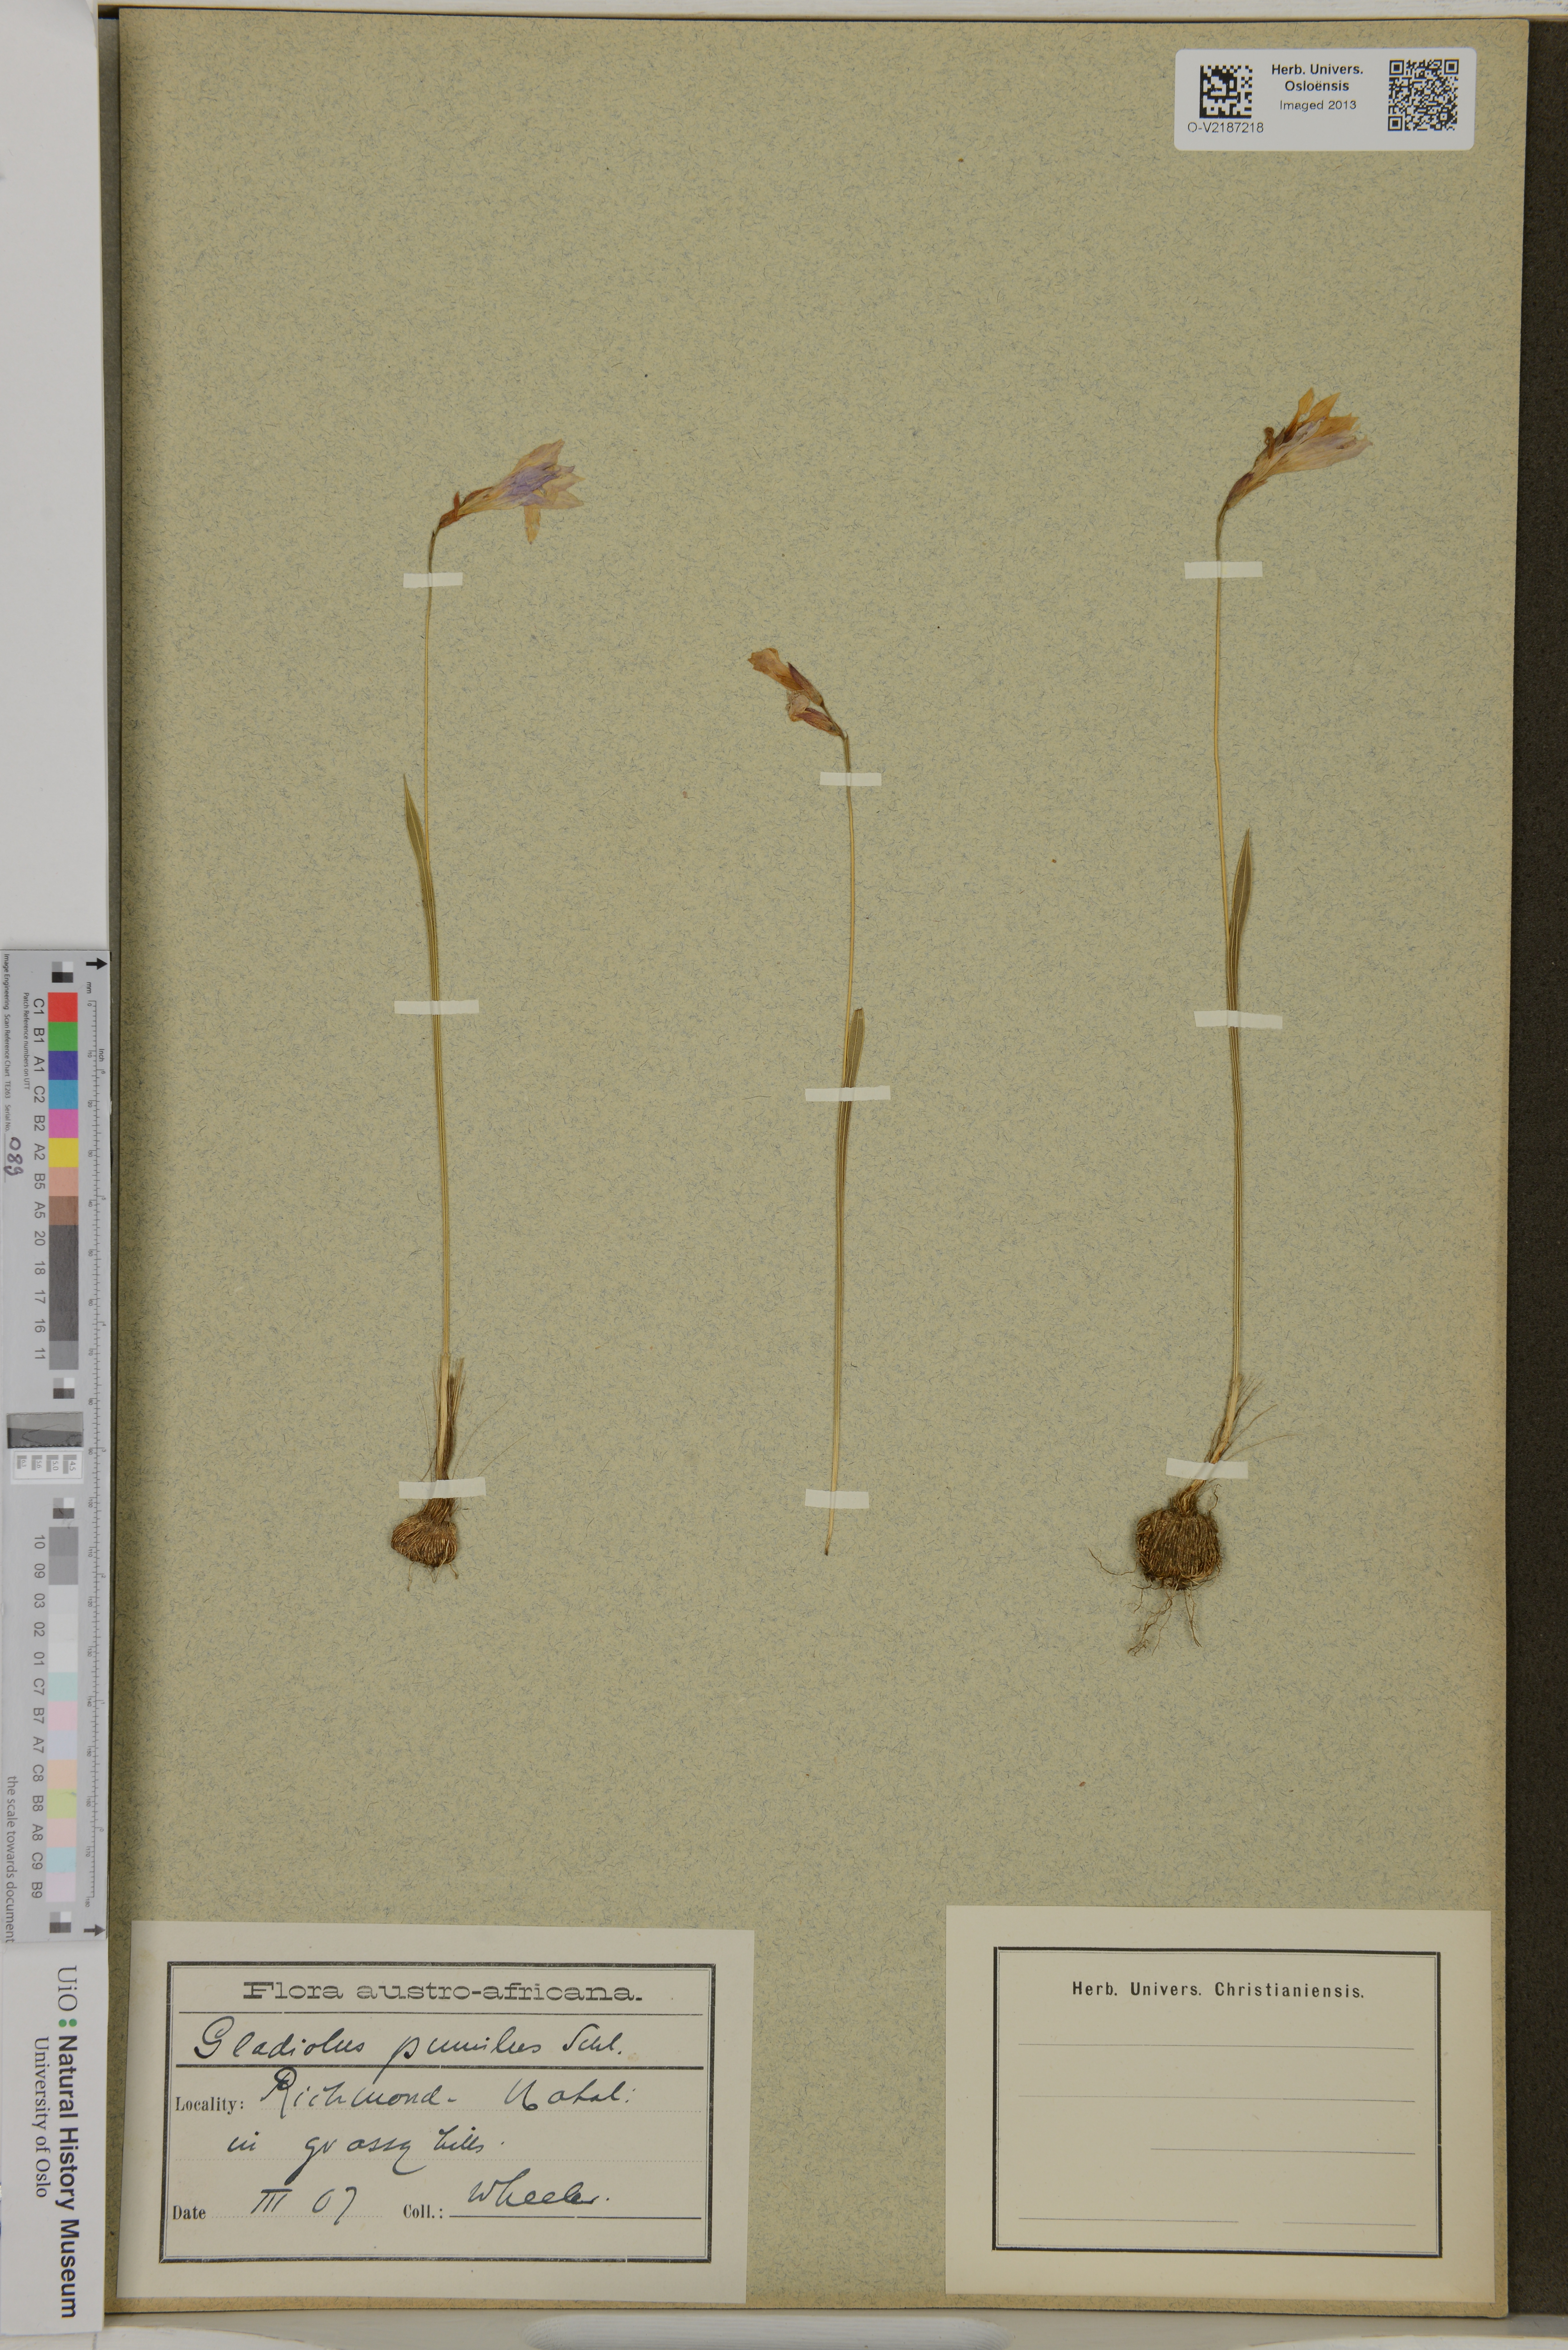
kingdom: Plantae
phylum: Tracheophyta
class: Liliopsida
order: Asparagales
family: Iridaceae
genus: Gladiolus
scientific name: Gladiolus
